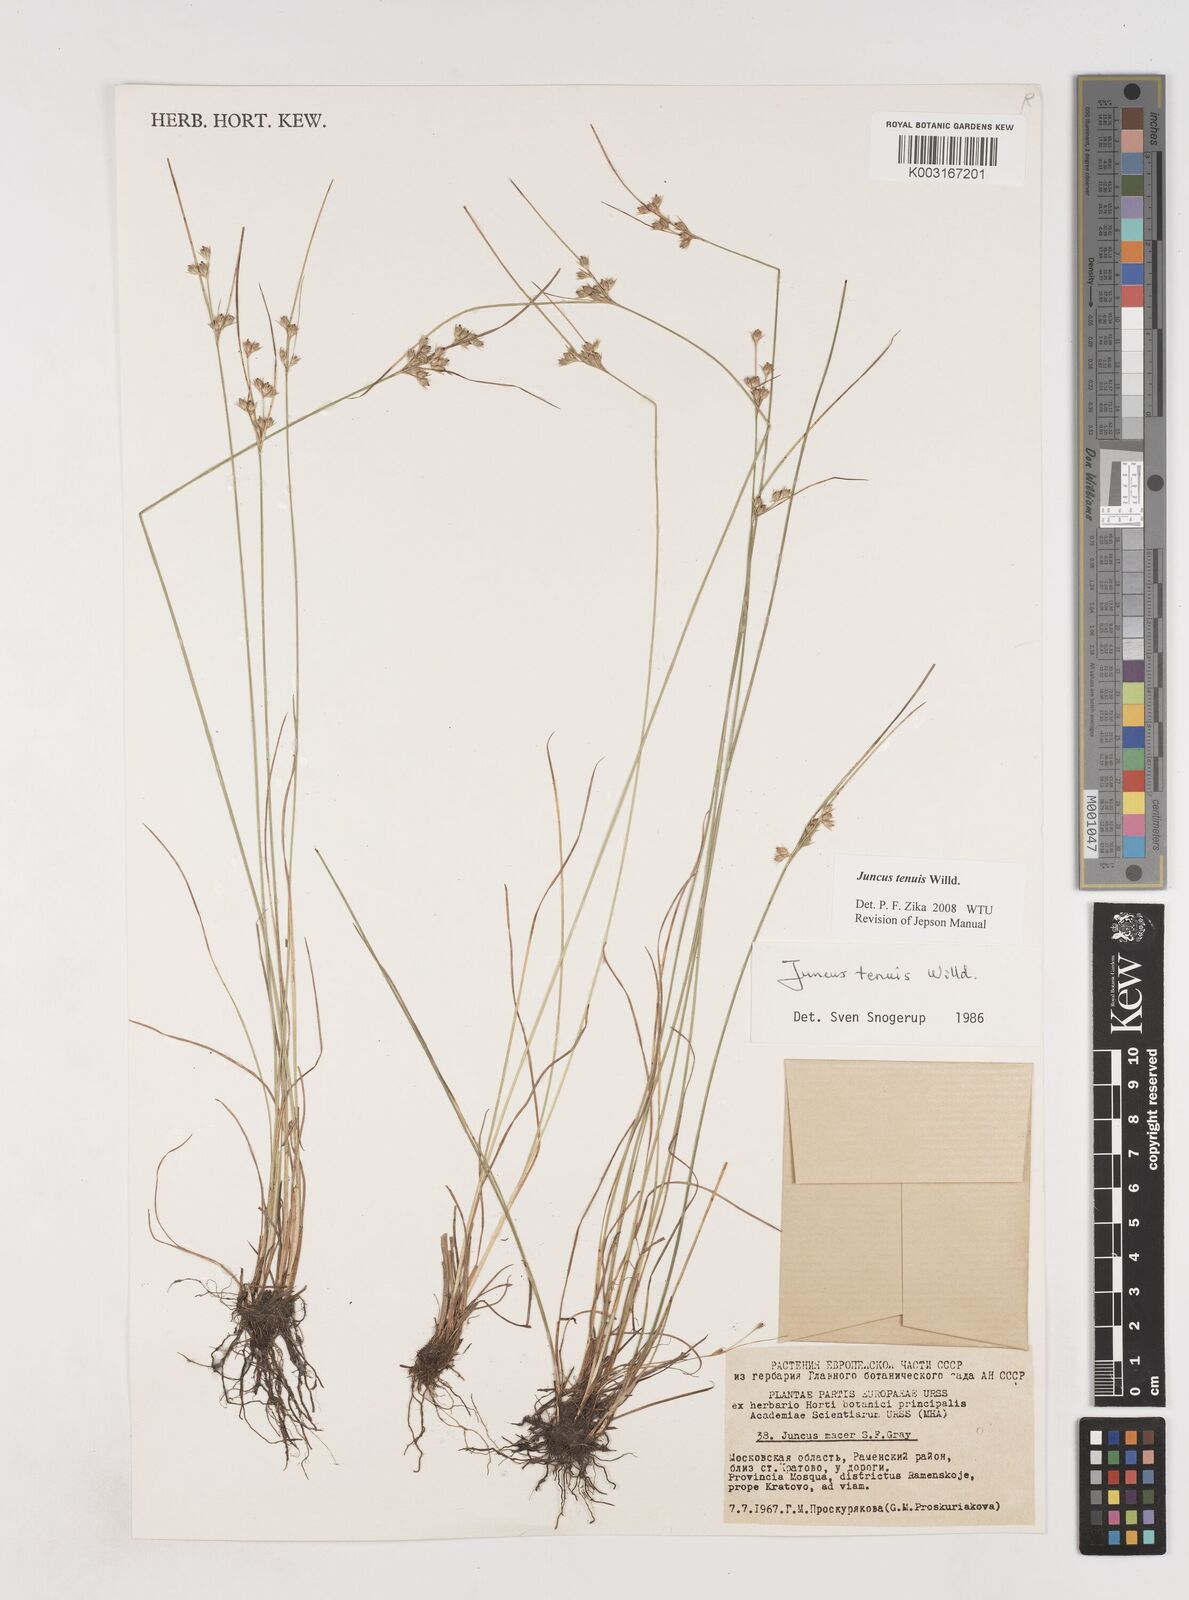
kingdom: Plantae
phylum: Tracheophyta
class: Liliopsida
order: Poales
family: Juncaceae
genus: Juncus
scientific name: Juncus tenuis
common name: Slender rush
